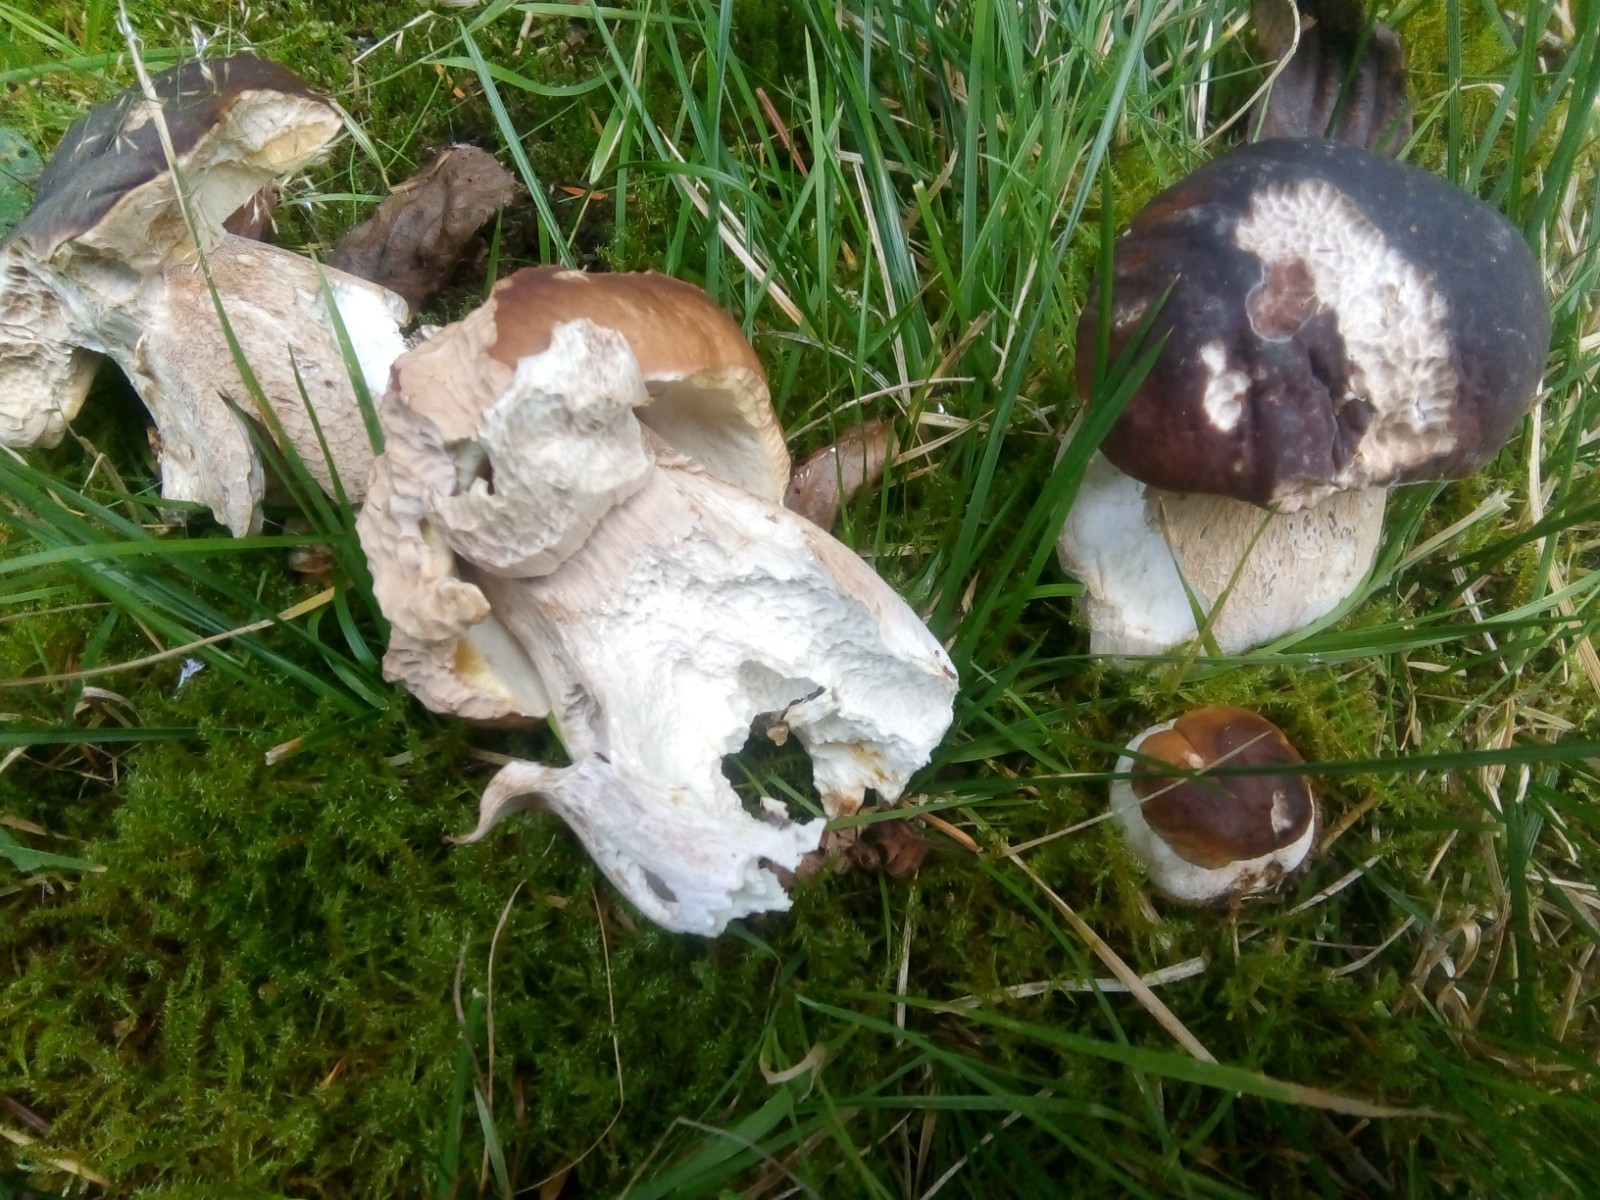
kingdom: Fungi
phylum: Basidiomycota
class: Agaricomycetes
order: Boletales
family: Boletaceae
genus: Boletus
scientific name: Boletus edulis
